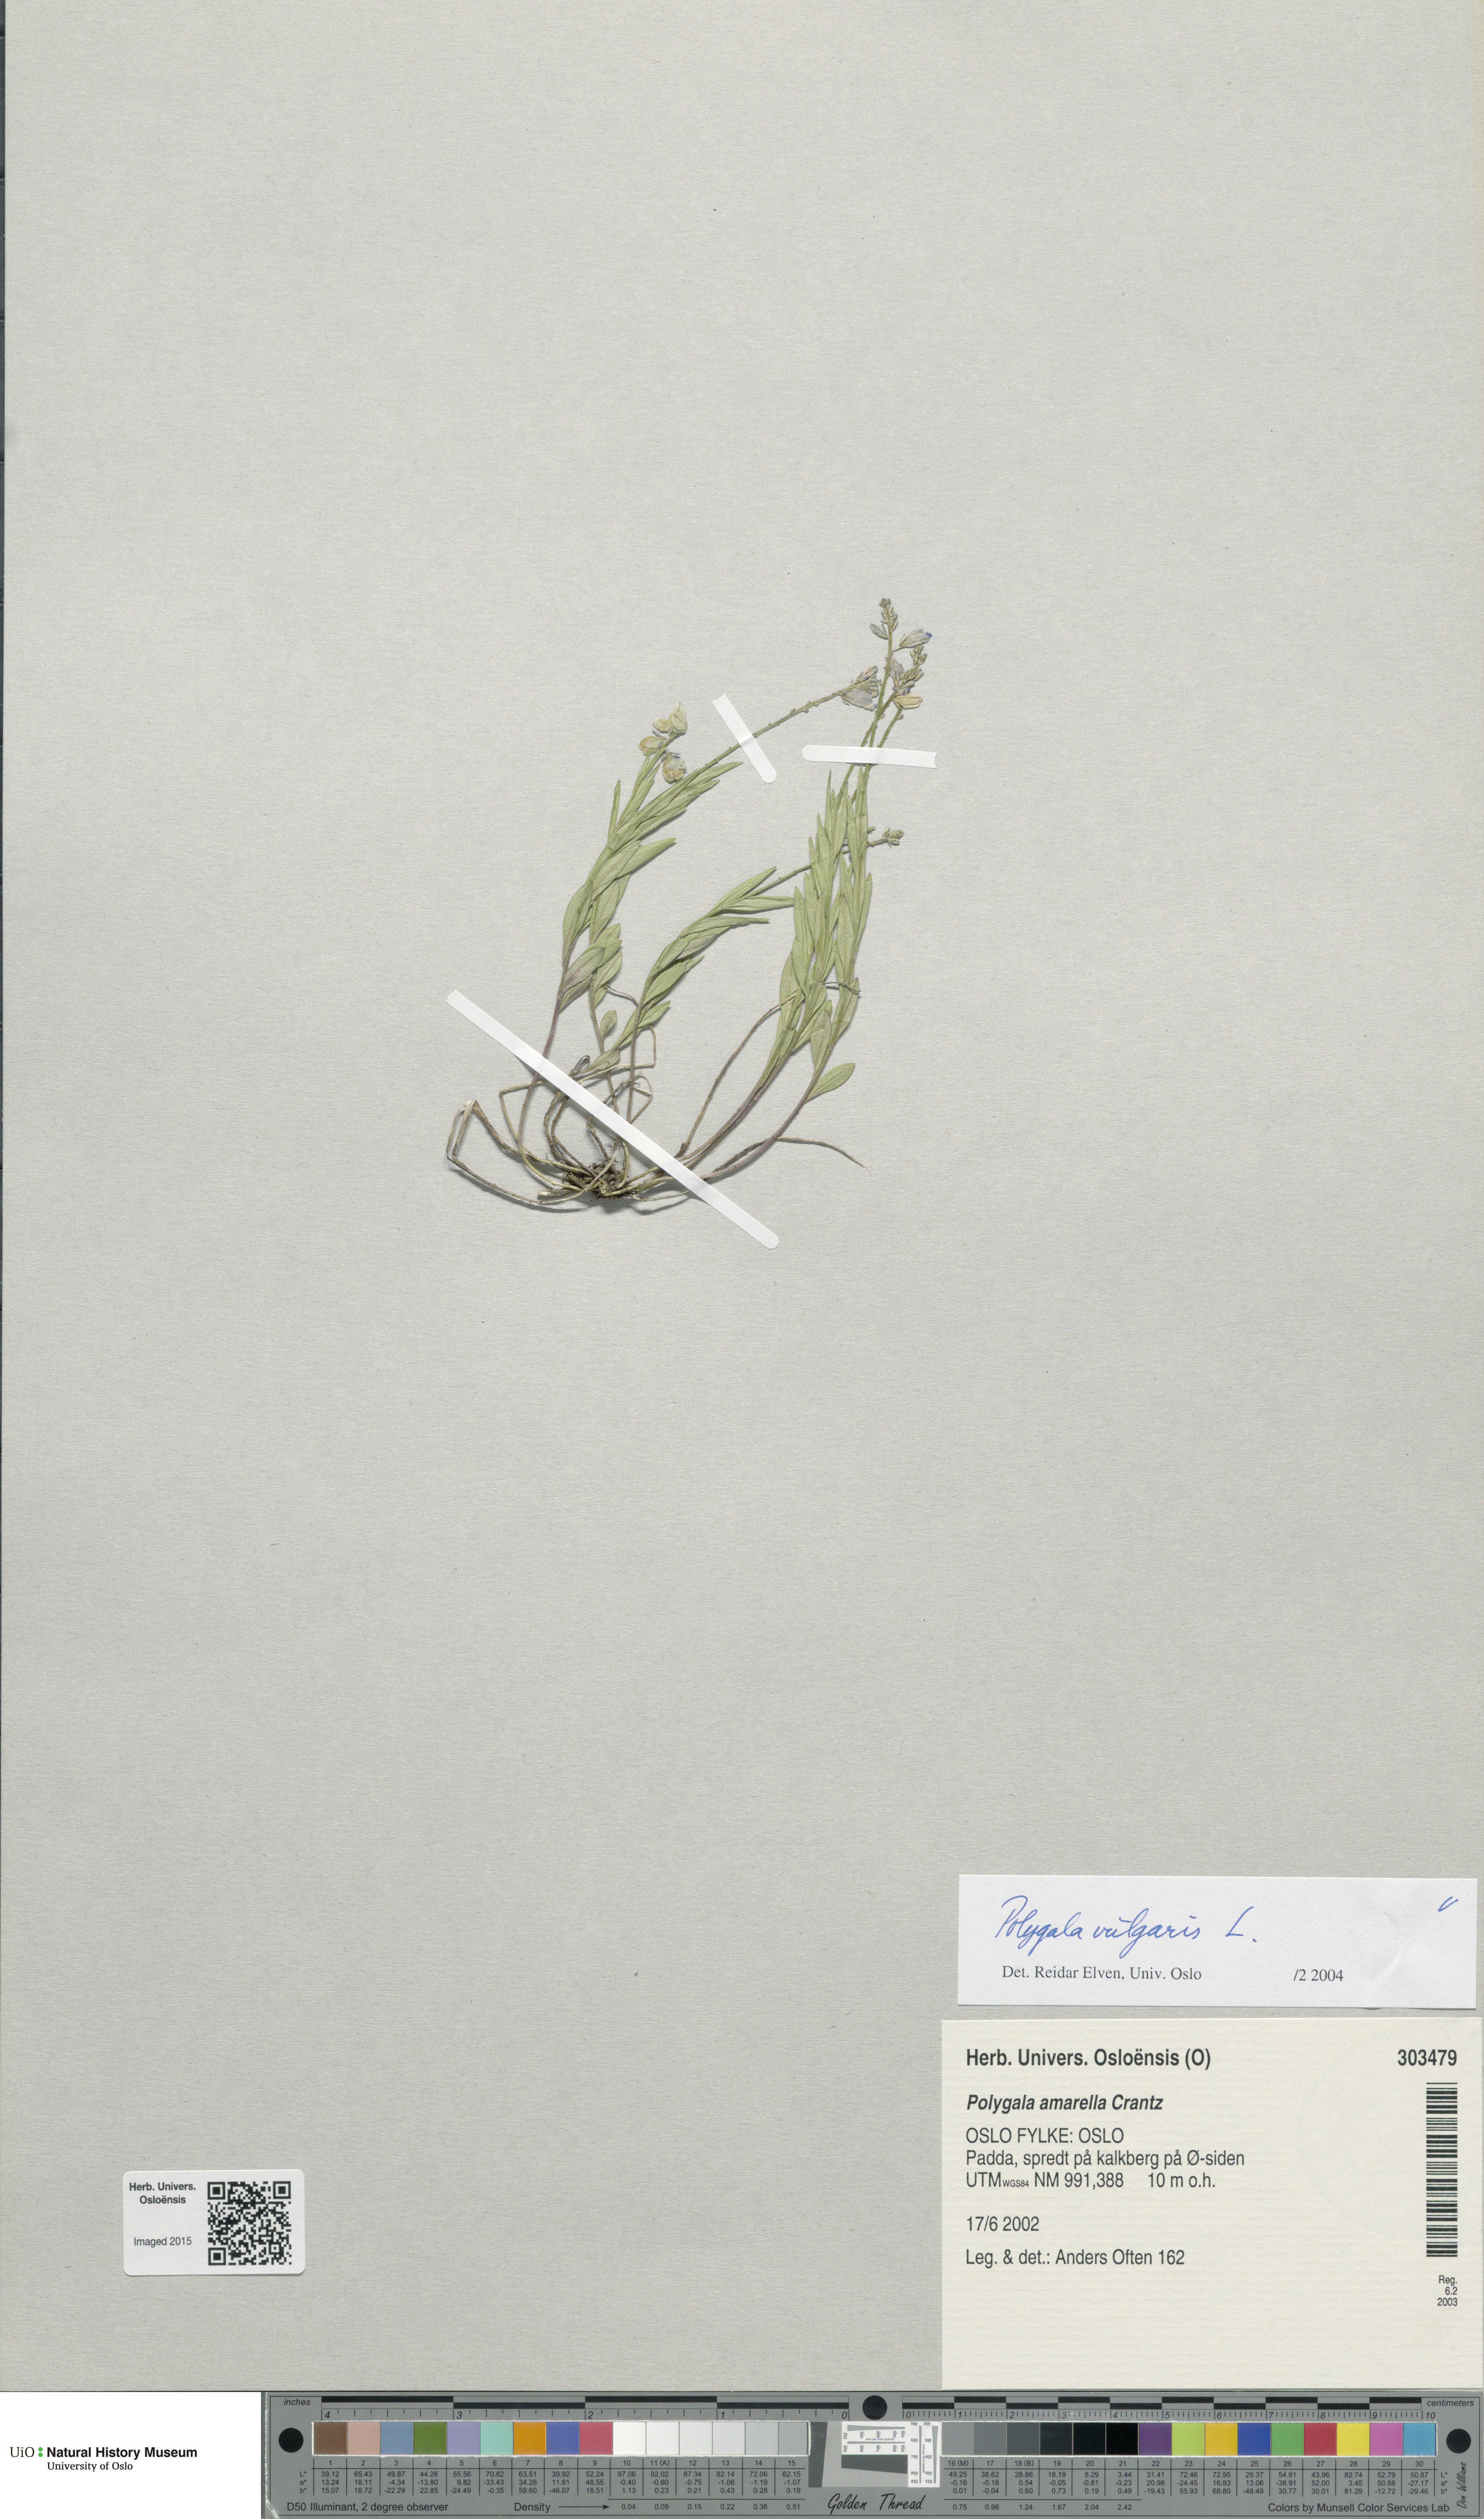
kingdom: Plantae
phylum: Tracheophyta
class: Magnoliopsida
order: Fabales
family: Polygalaceae
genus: Polygala
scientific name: Polygala vulgaris
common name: Common milkwort
